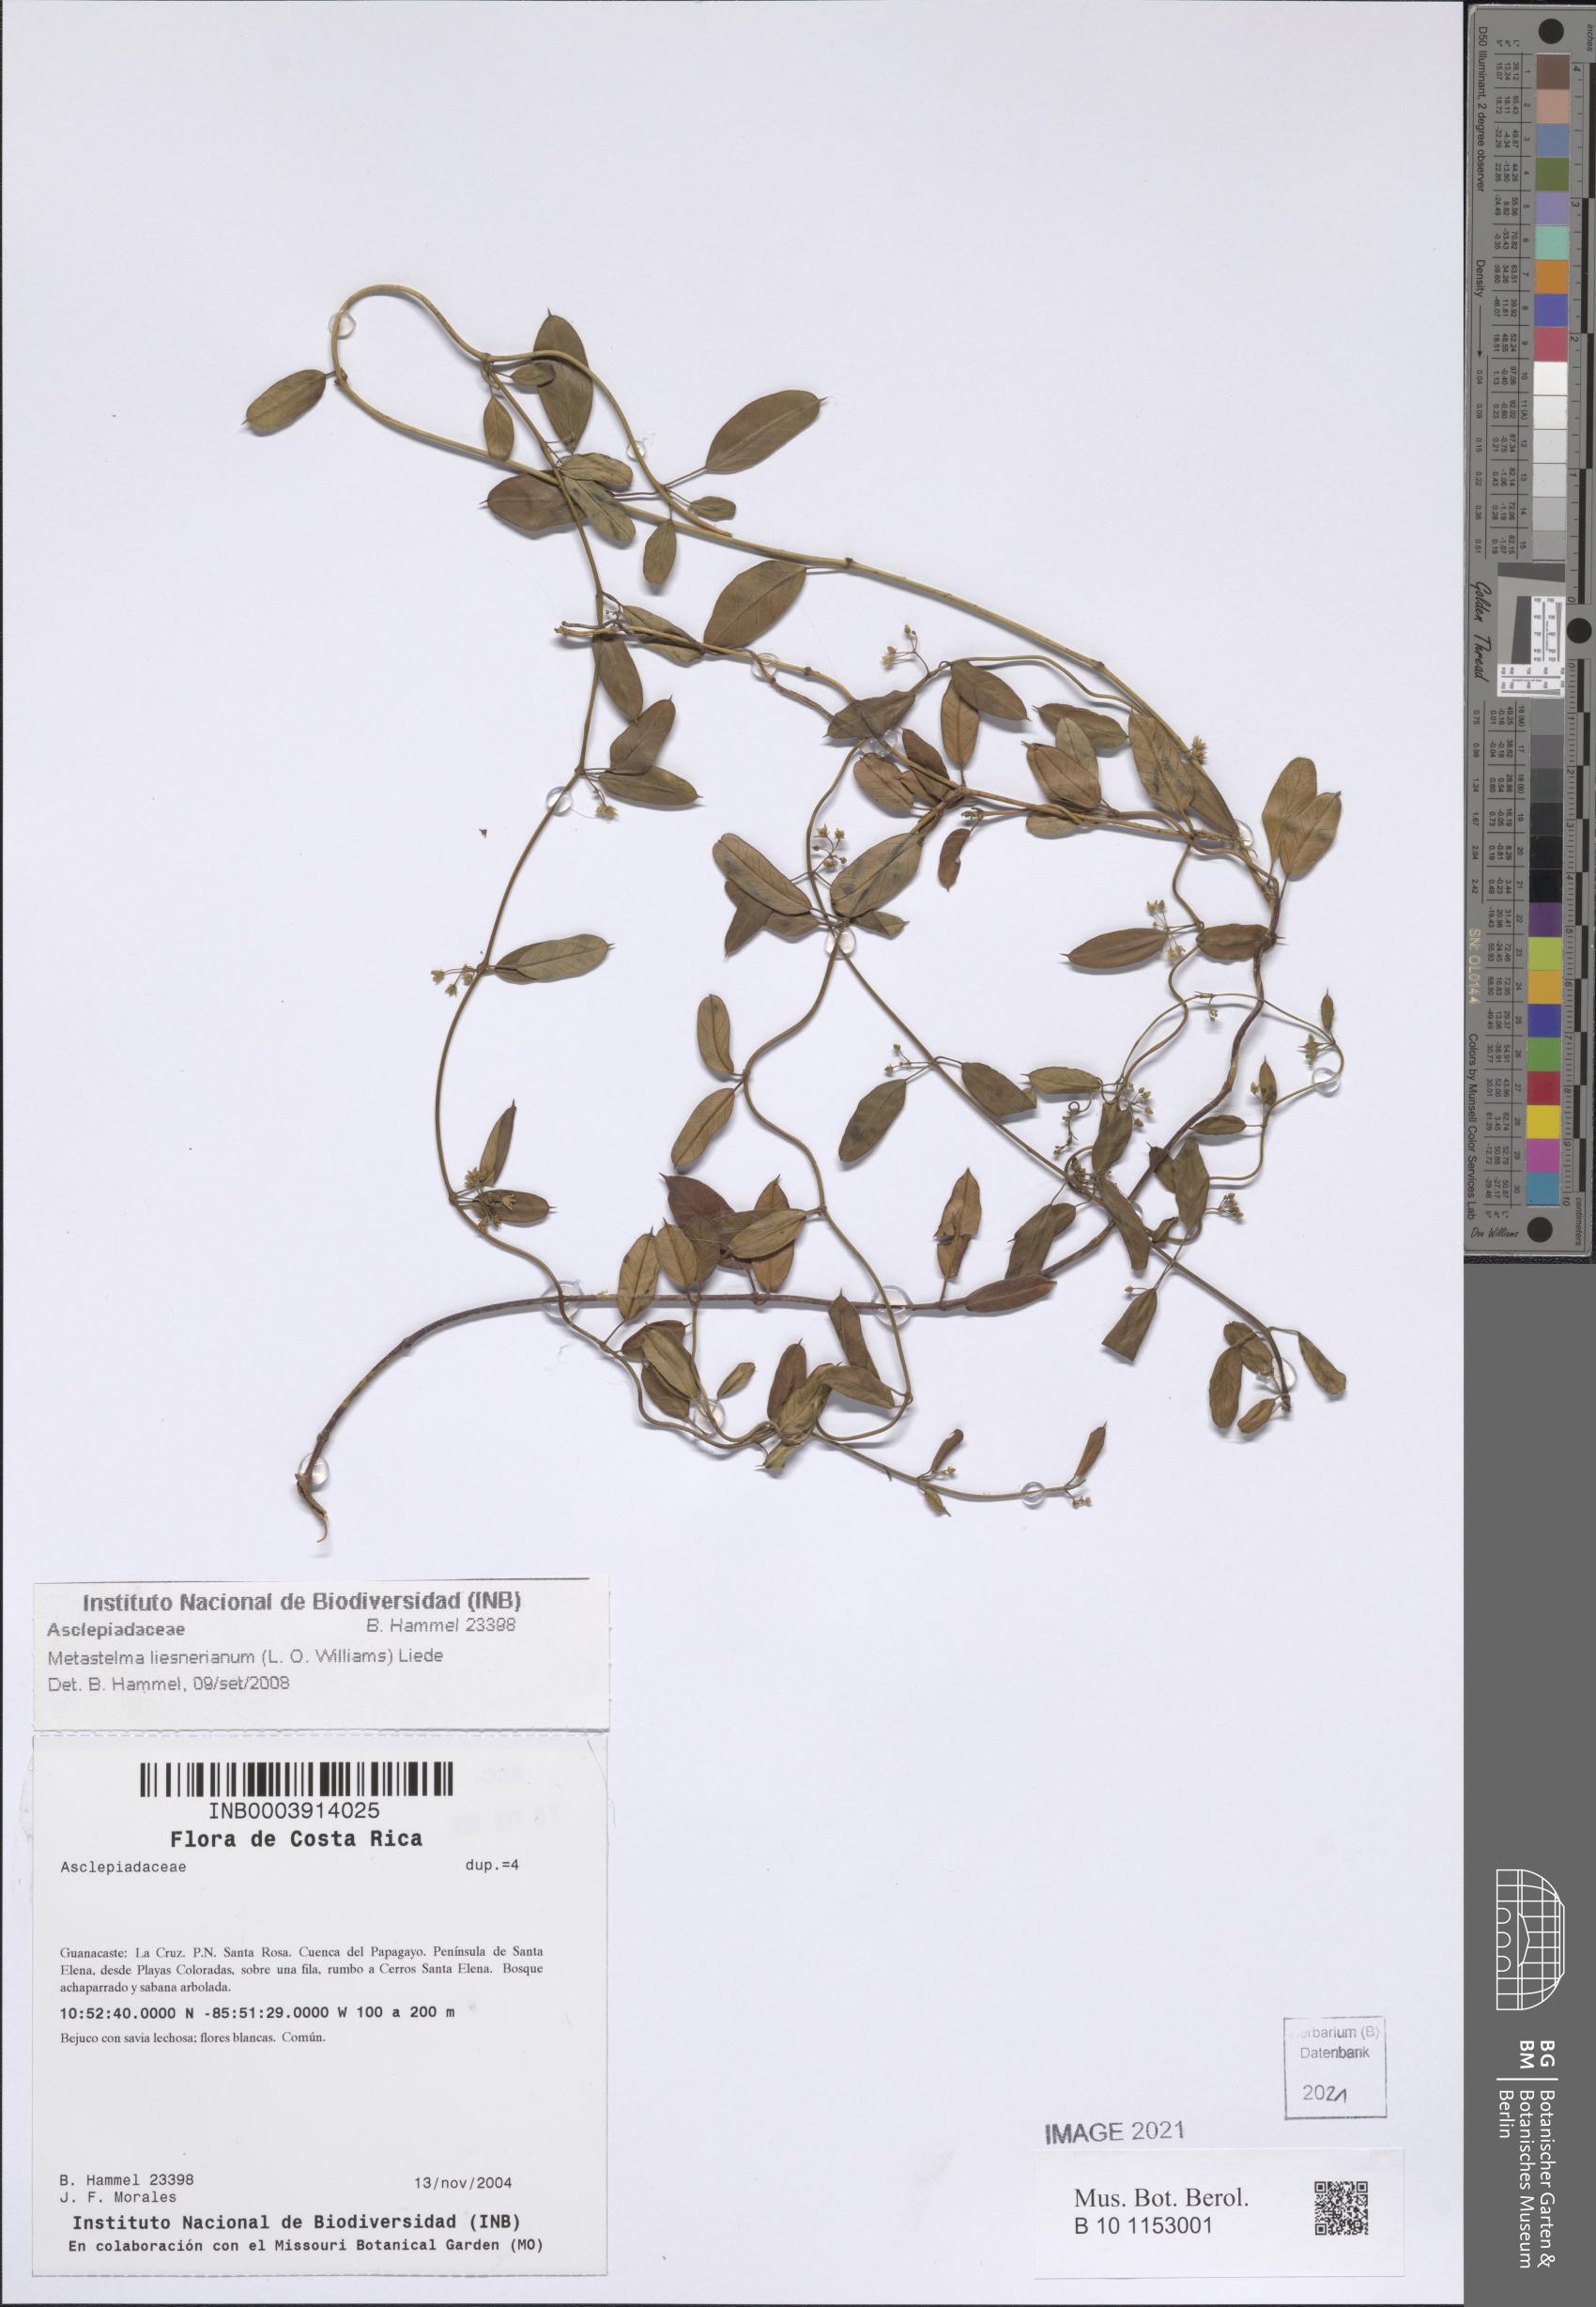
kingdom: Plantae
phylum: Tracheophyta
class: Magnoliopsida
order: Gentianales
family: Apocynaceae
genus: Metastelma
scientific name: Metastelma barbigerum
